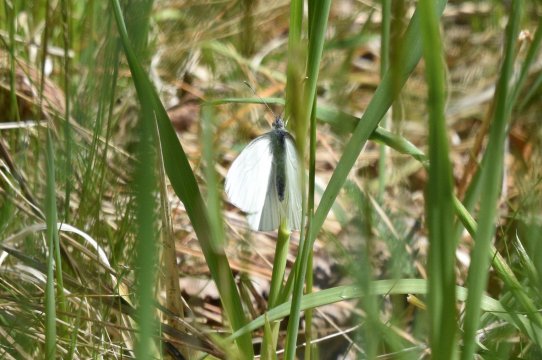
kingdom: Animalia
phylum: Arthropoda
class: Insecta
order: Lepidoptera
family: Pieridae
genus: Pieris
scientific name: Pieris oleracea
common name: Mustard White
